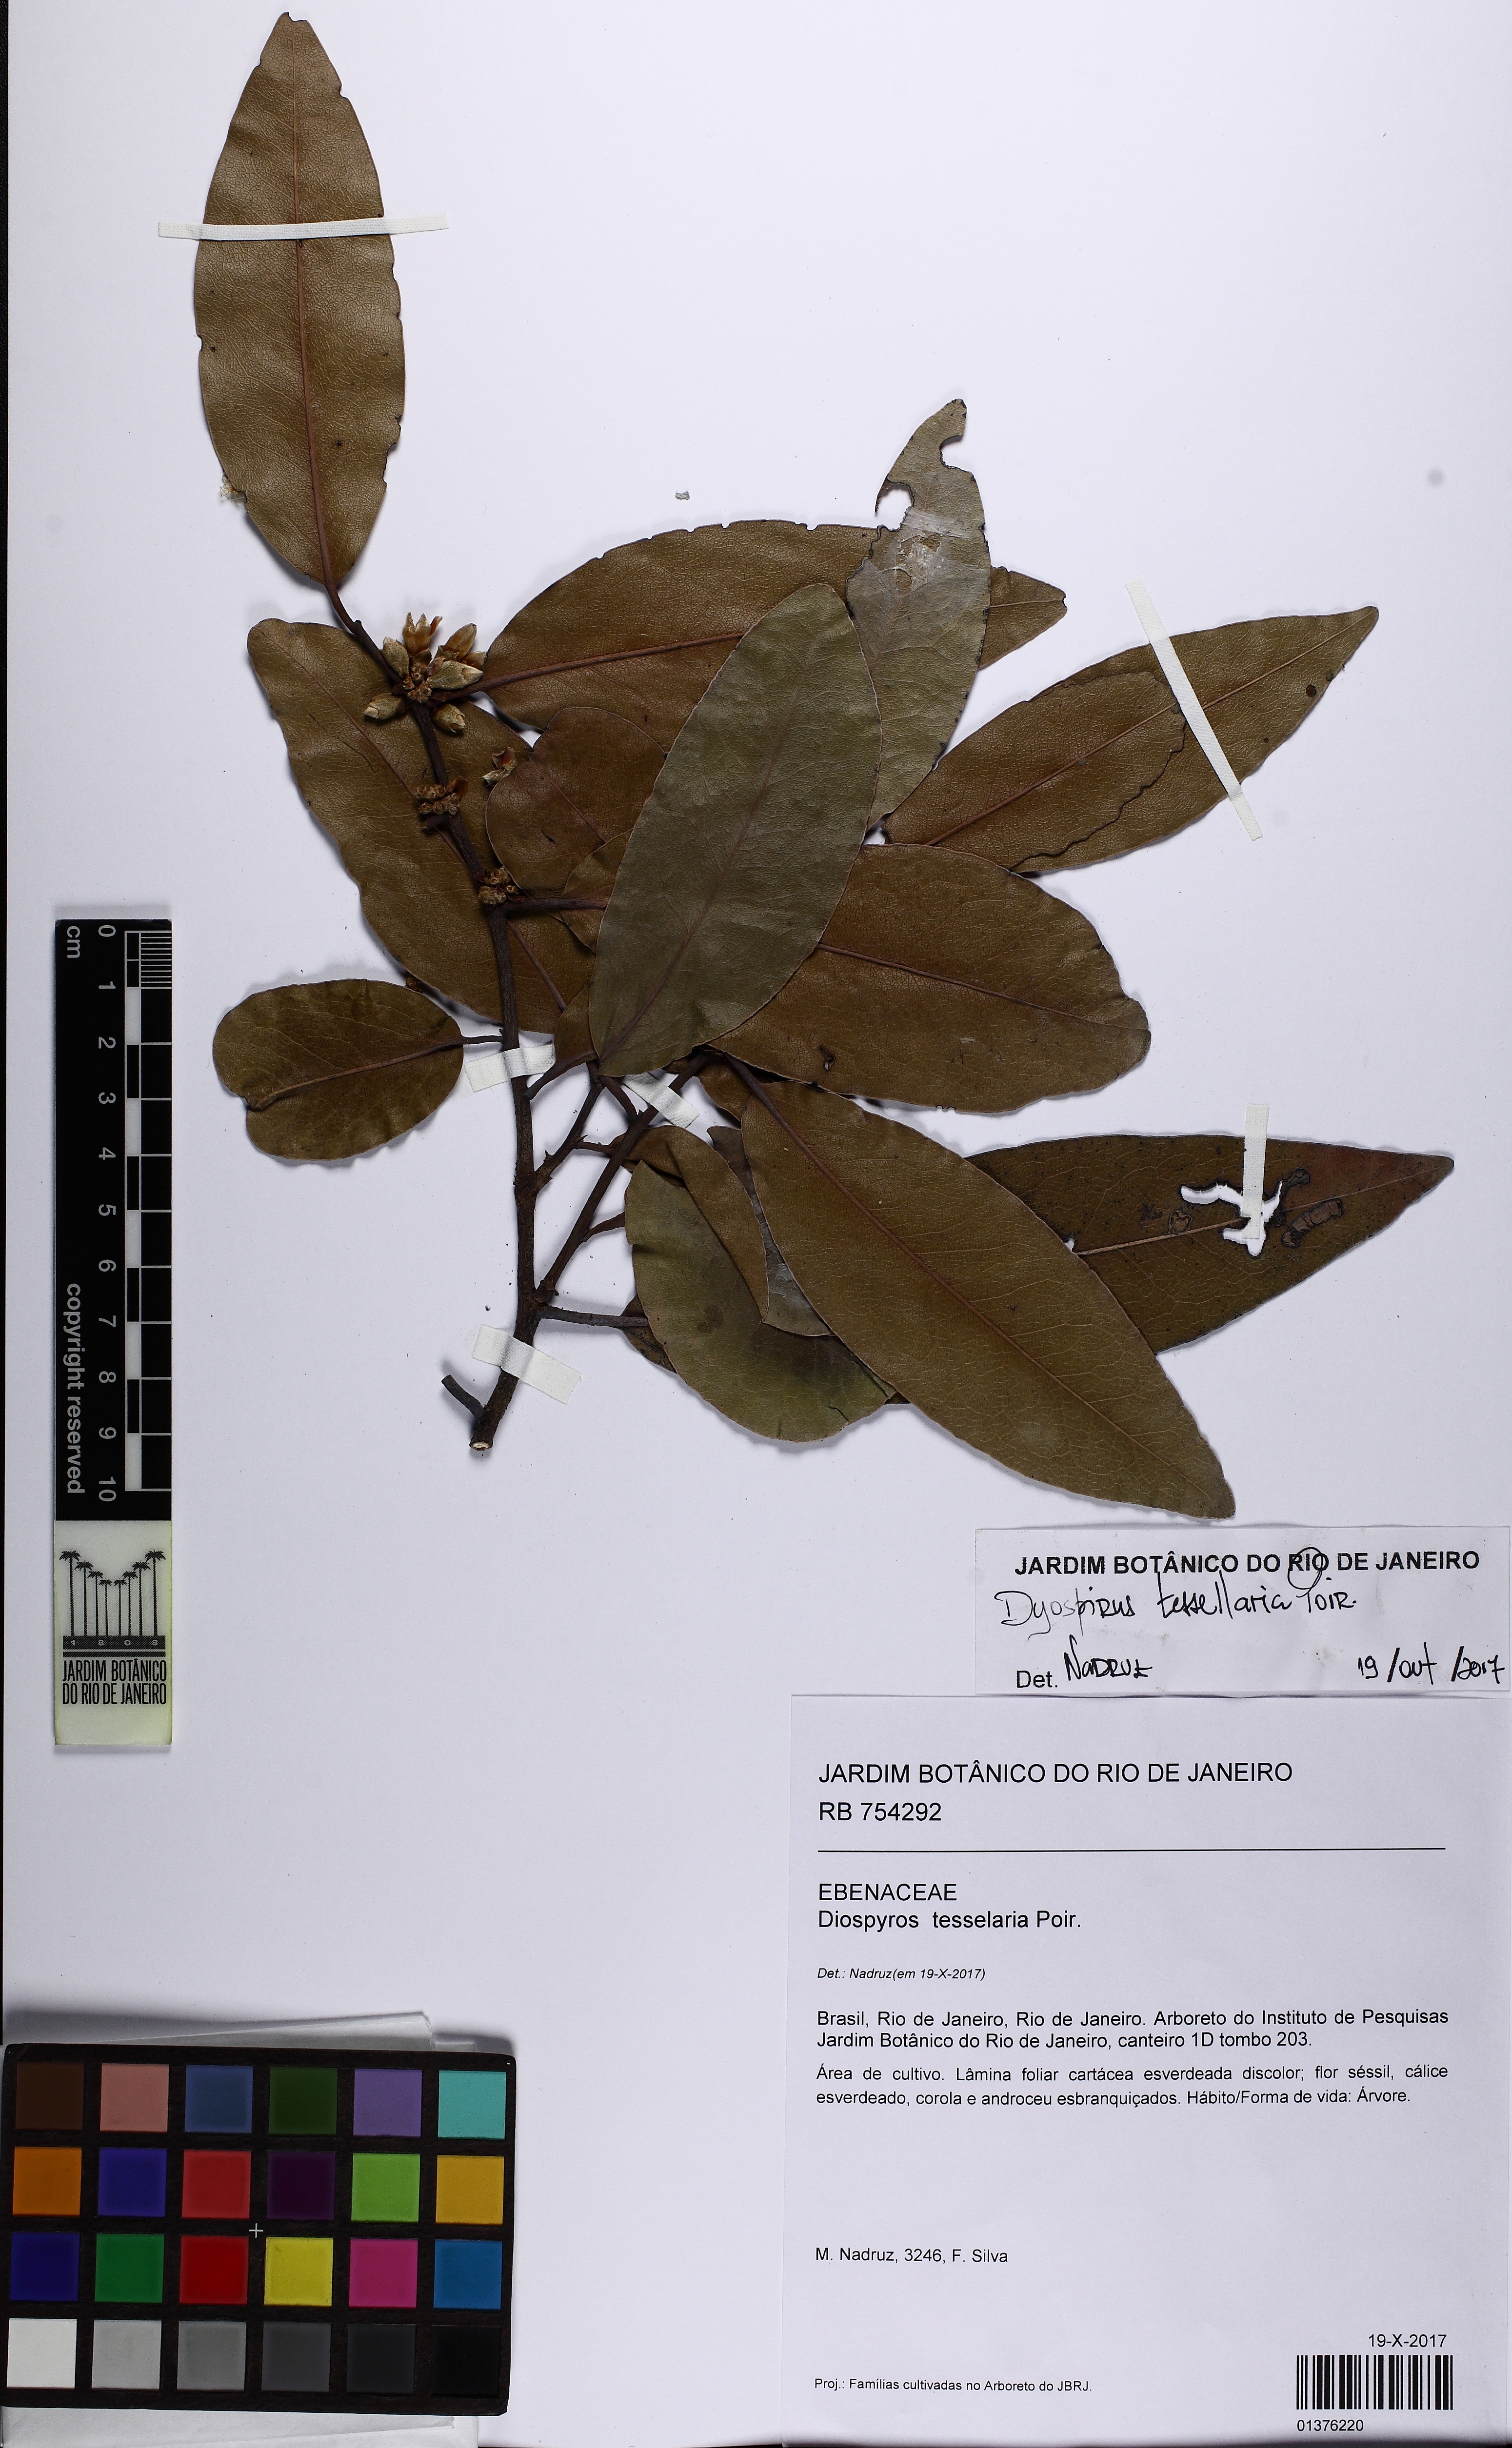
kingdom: Plantae
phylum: Tracheophyta
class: Magnoliopsida
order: Ericales
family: Ebenaceae
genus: Diospyros
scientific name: Diospyros tessellaria
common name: Black ebony
